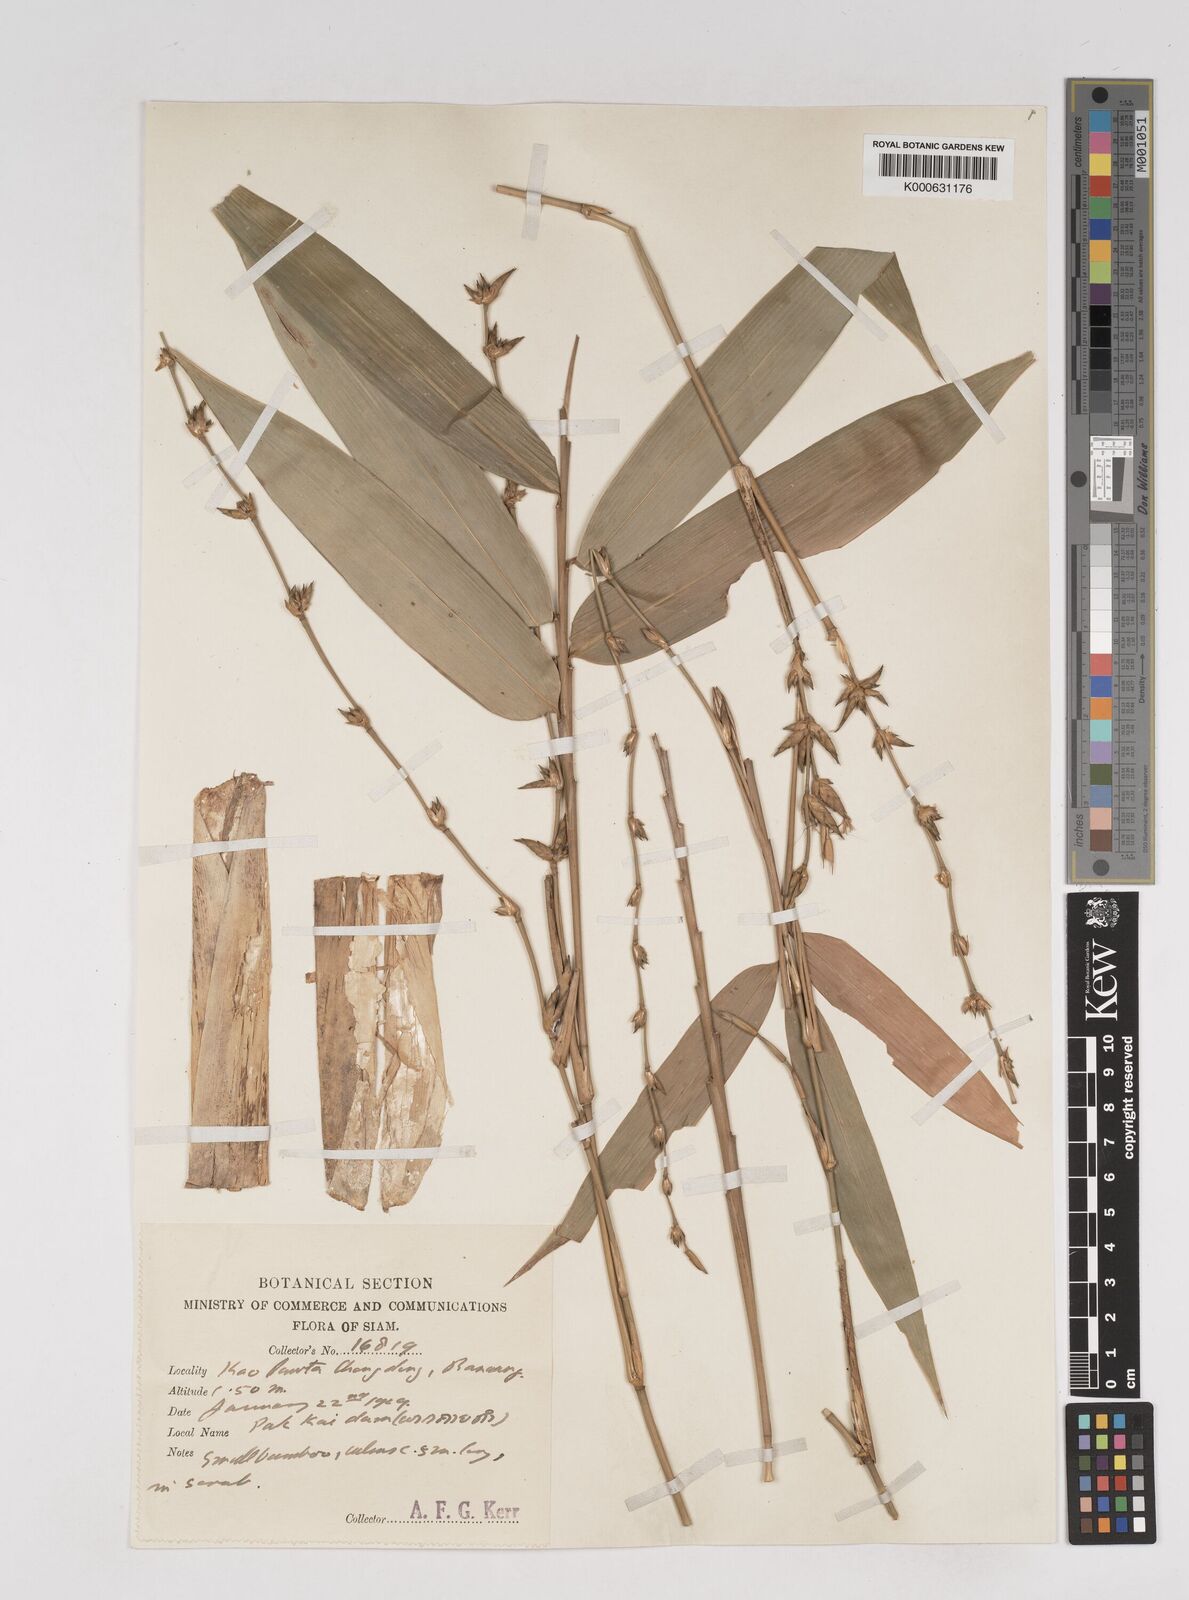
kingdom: Plantae
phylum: Tracheophyta
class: Liliopsida
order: Poales
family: Poaceae
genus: Gigantochloa
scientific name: Gigantochloa
